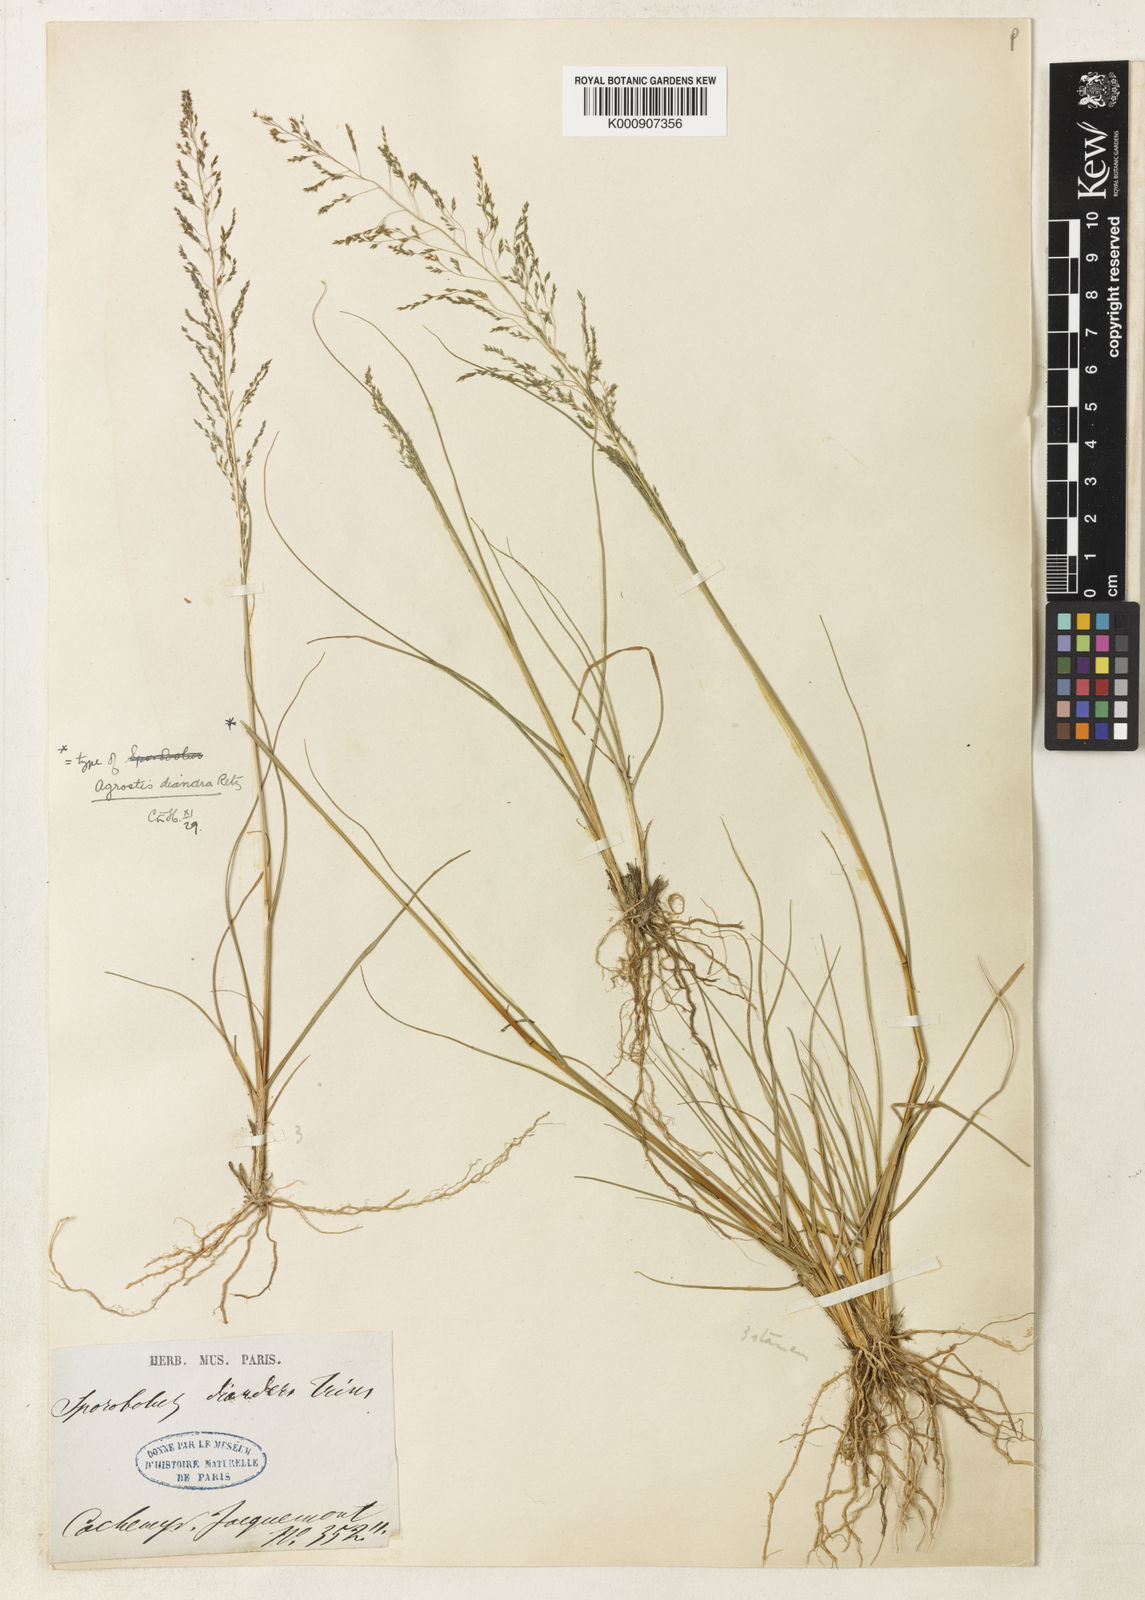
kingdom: Plantae
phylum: Tracheophyta
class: Liliopsida
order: Poales
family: Poaceae
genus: Sporobolus
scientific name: Sporobolus diandrus
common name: Tussock dropseed
